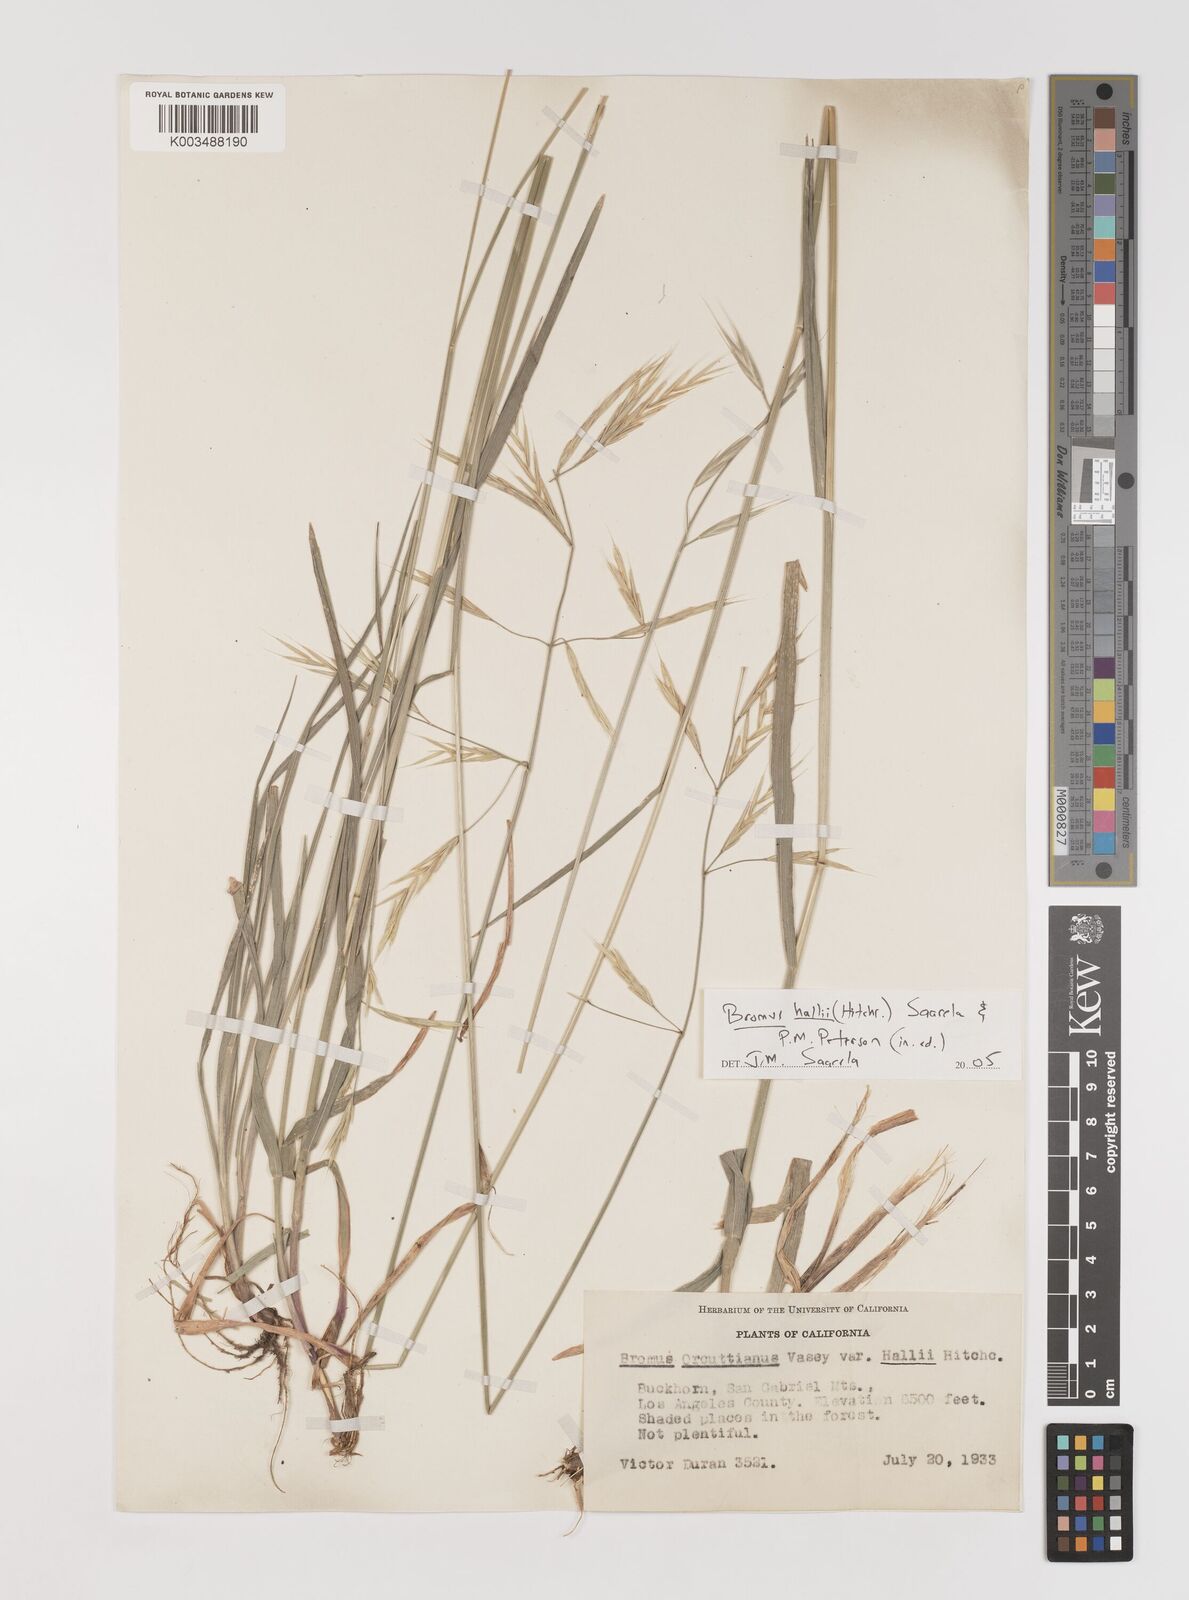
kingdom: Plantae
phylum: Tracheophyta
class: Liliopsida
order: Poales
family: Poaceae
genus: Bromus
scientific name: Bromus
